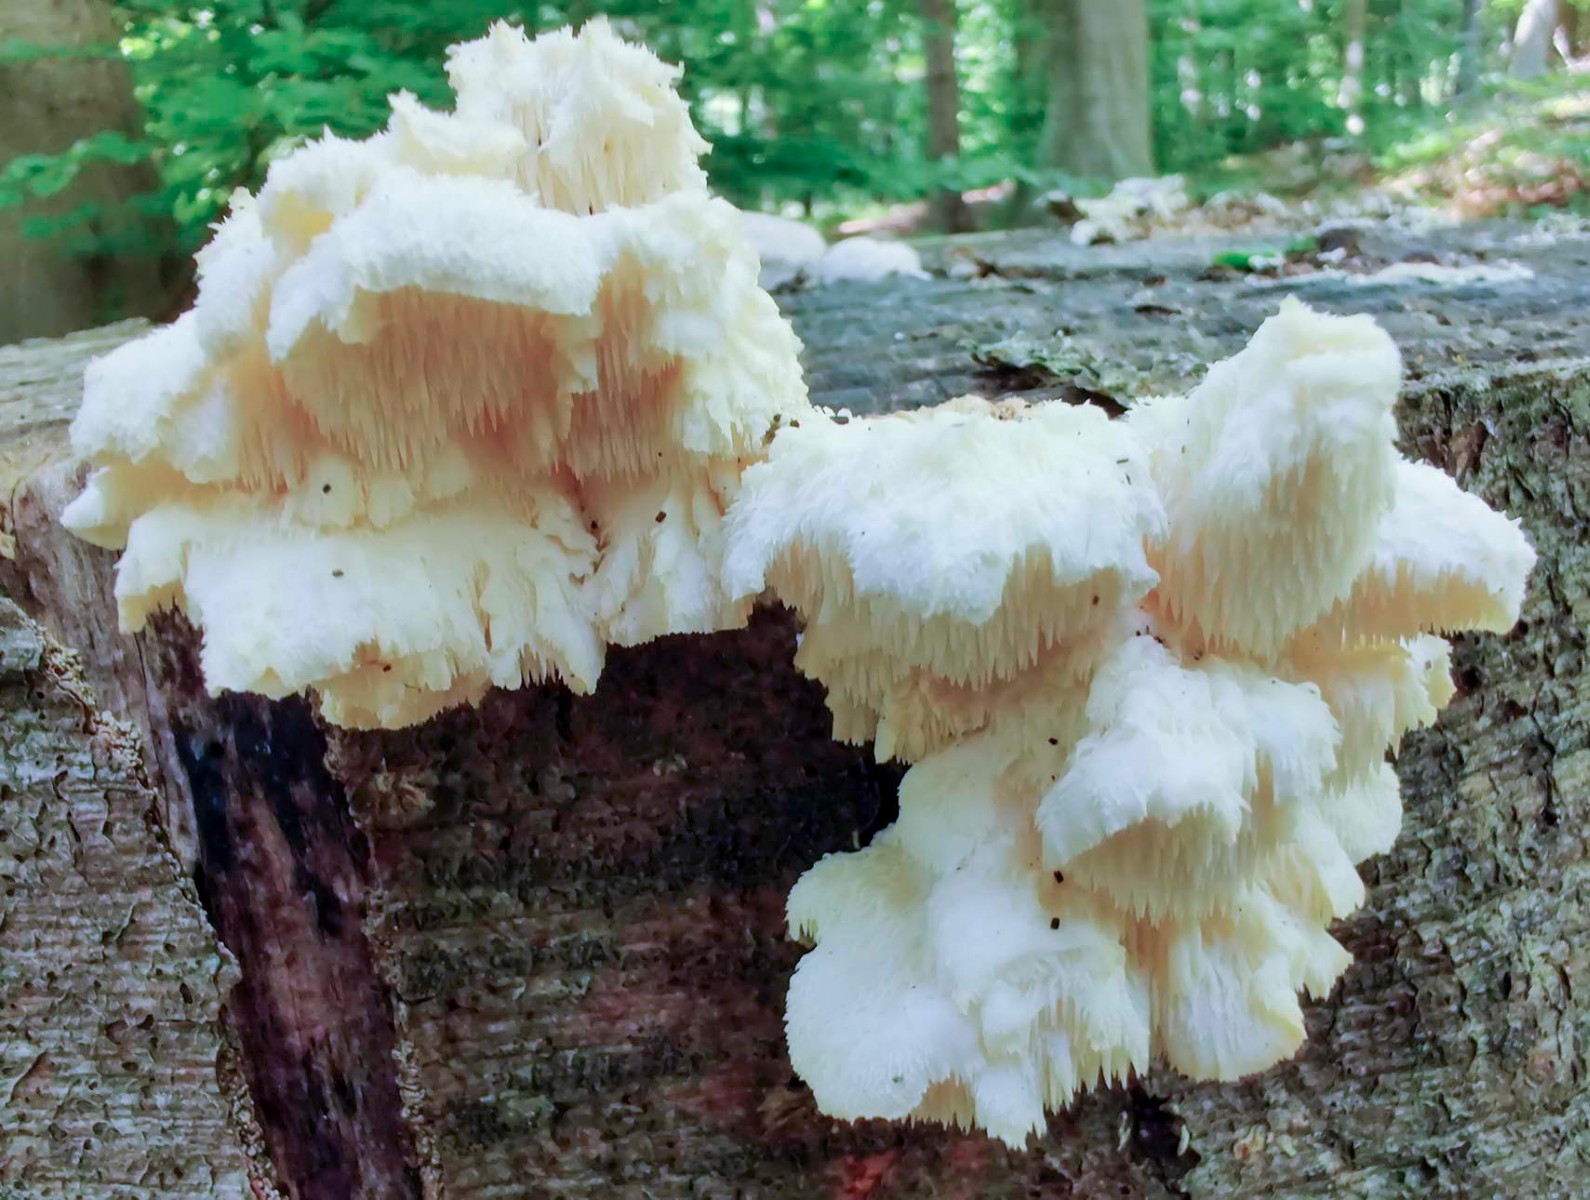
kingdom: Fungi
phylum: Basidiomycota
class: Agaricomycetes
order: Russulales
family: Hericiaceae
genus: Hericium
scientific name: Hericium cirrhatum
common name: børstepigsvamp
